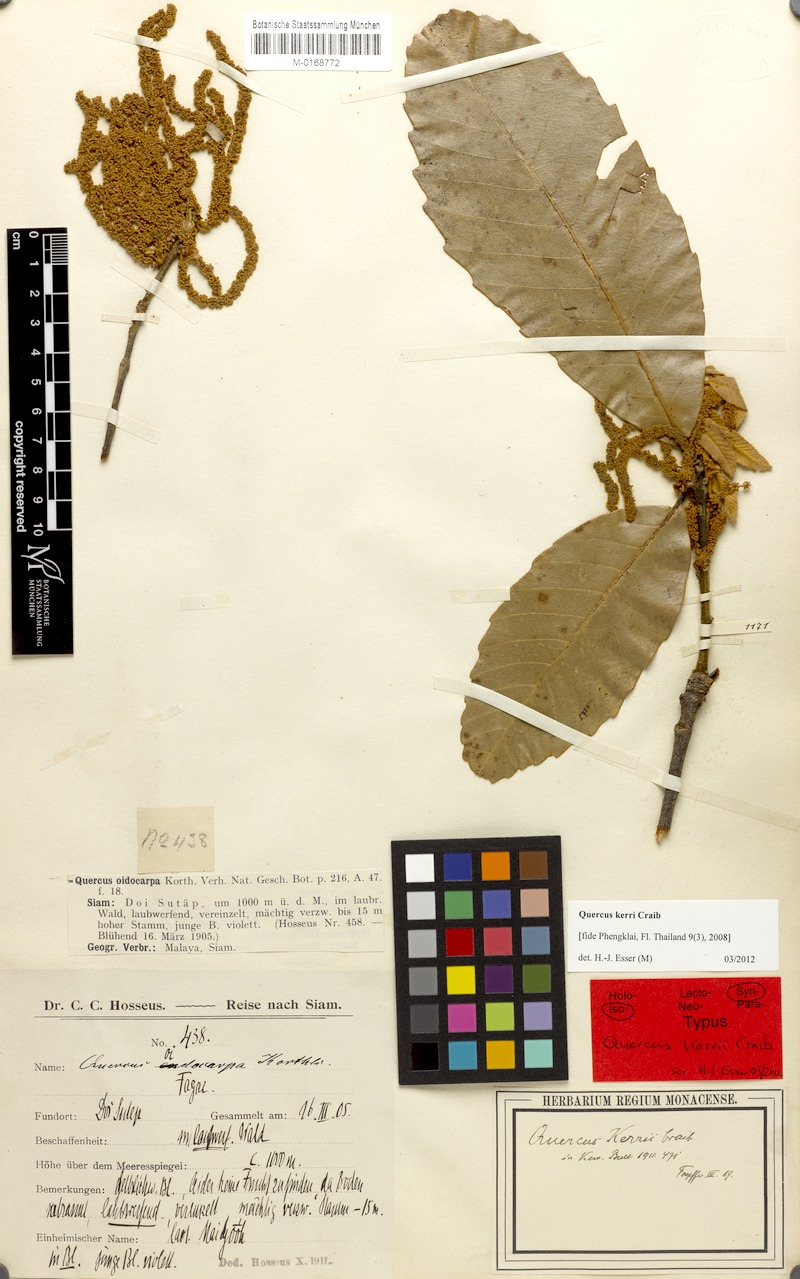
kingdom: Plantae
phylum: Tracheophyta
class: Magnoliopsida
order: Fagales
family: Fagaceae
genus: Quercus
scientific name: Quercus kerrii
